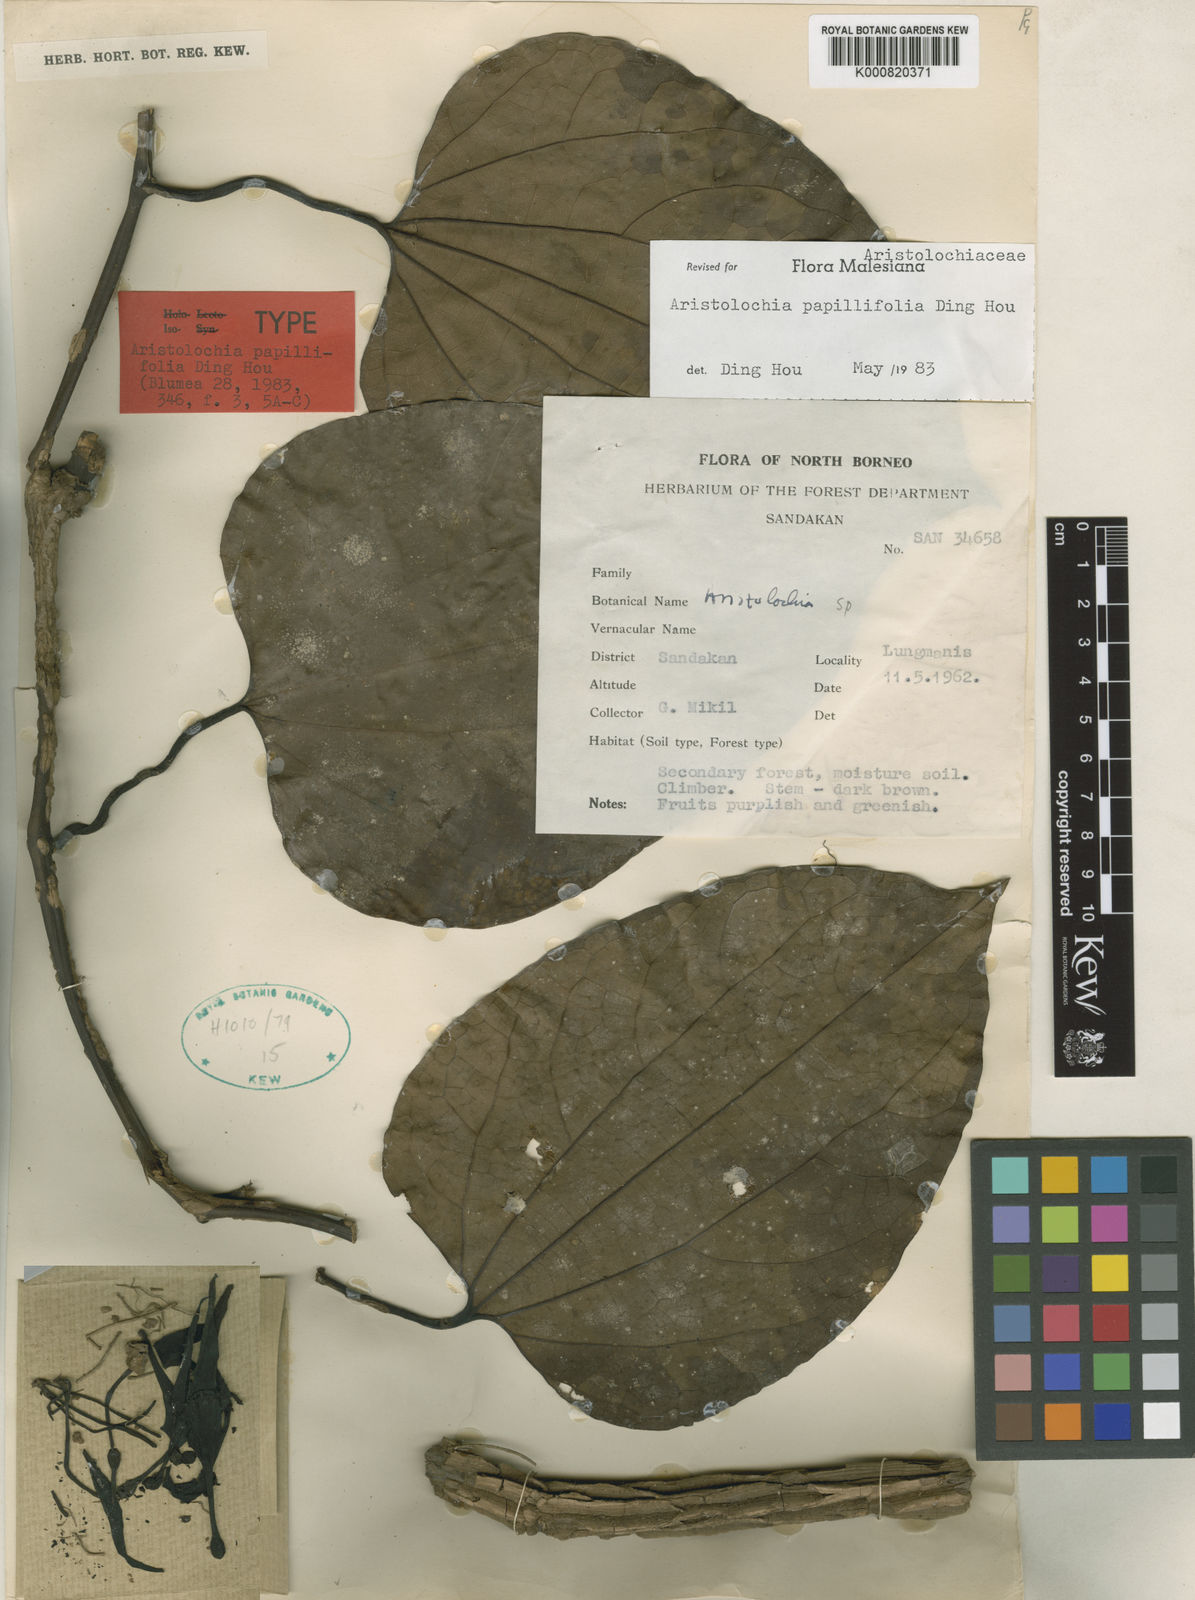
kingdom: Plantae
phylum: Tracheophyta
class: Magnoliopsida
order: Piperales
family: Aristolochiaceae
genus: Aristolochia
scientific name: Aristolochia papillifolia
